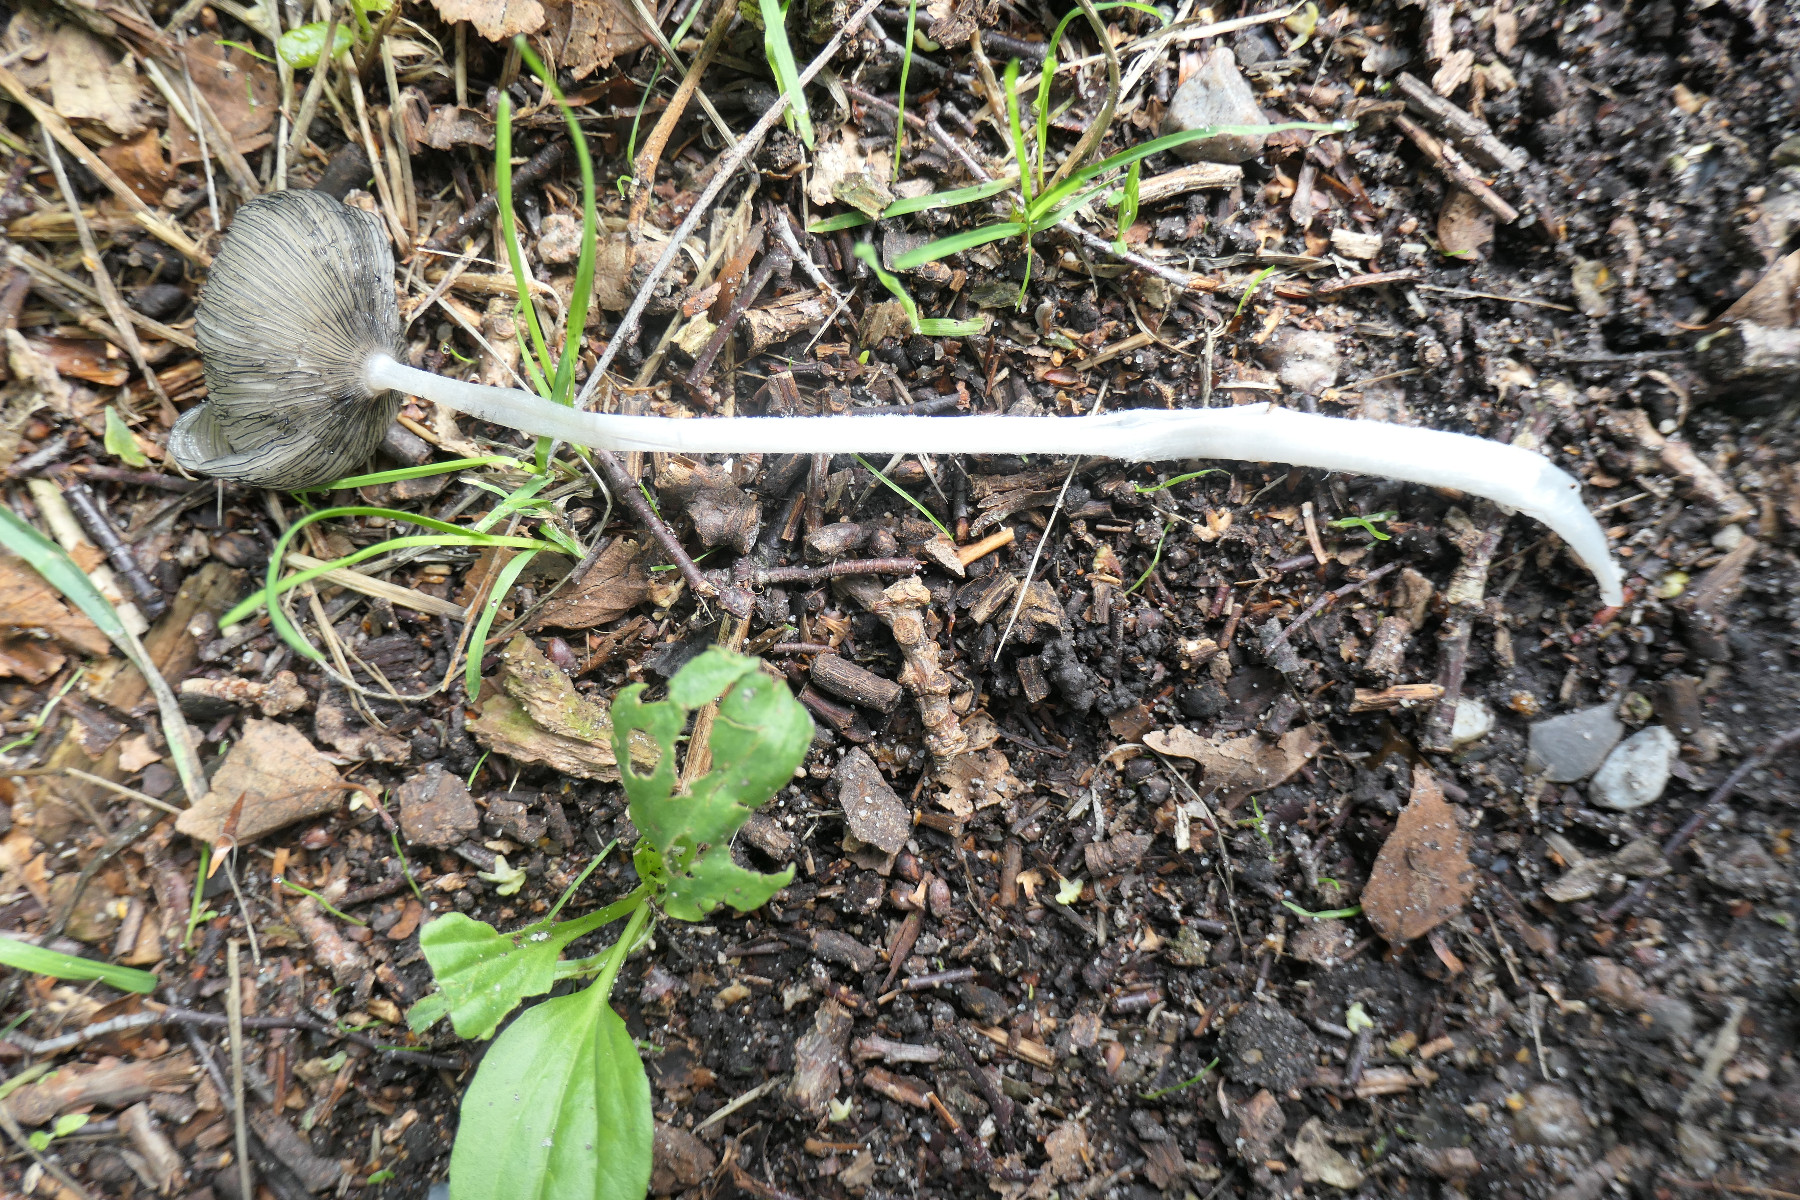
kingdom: Fungi
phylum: Basidiomycota
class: Agaricomycetes
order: Agaricales
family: Psathyrellaceae
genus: Coprinopsis
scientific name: Coprinopsis lagopus
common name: dunstokket blækhat
